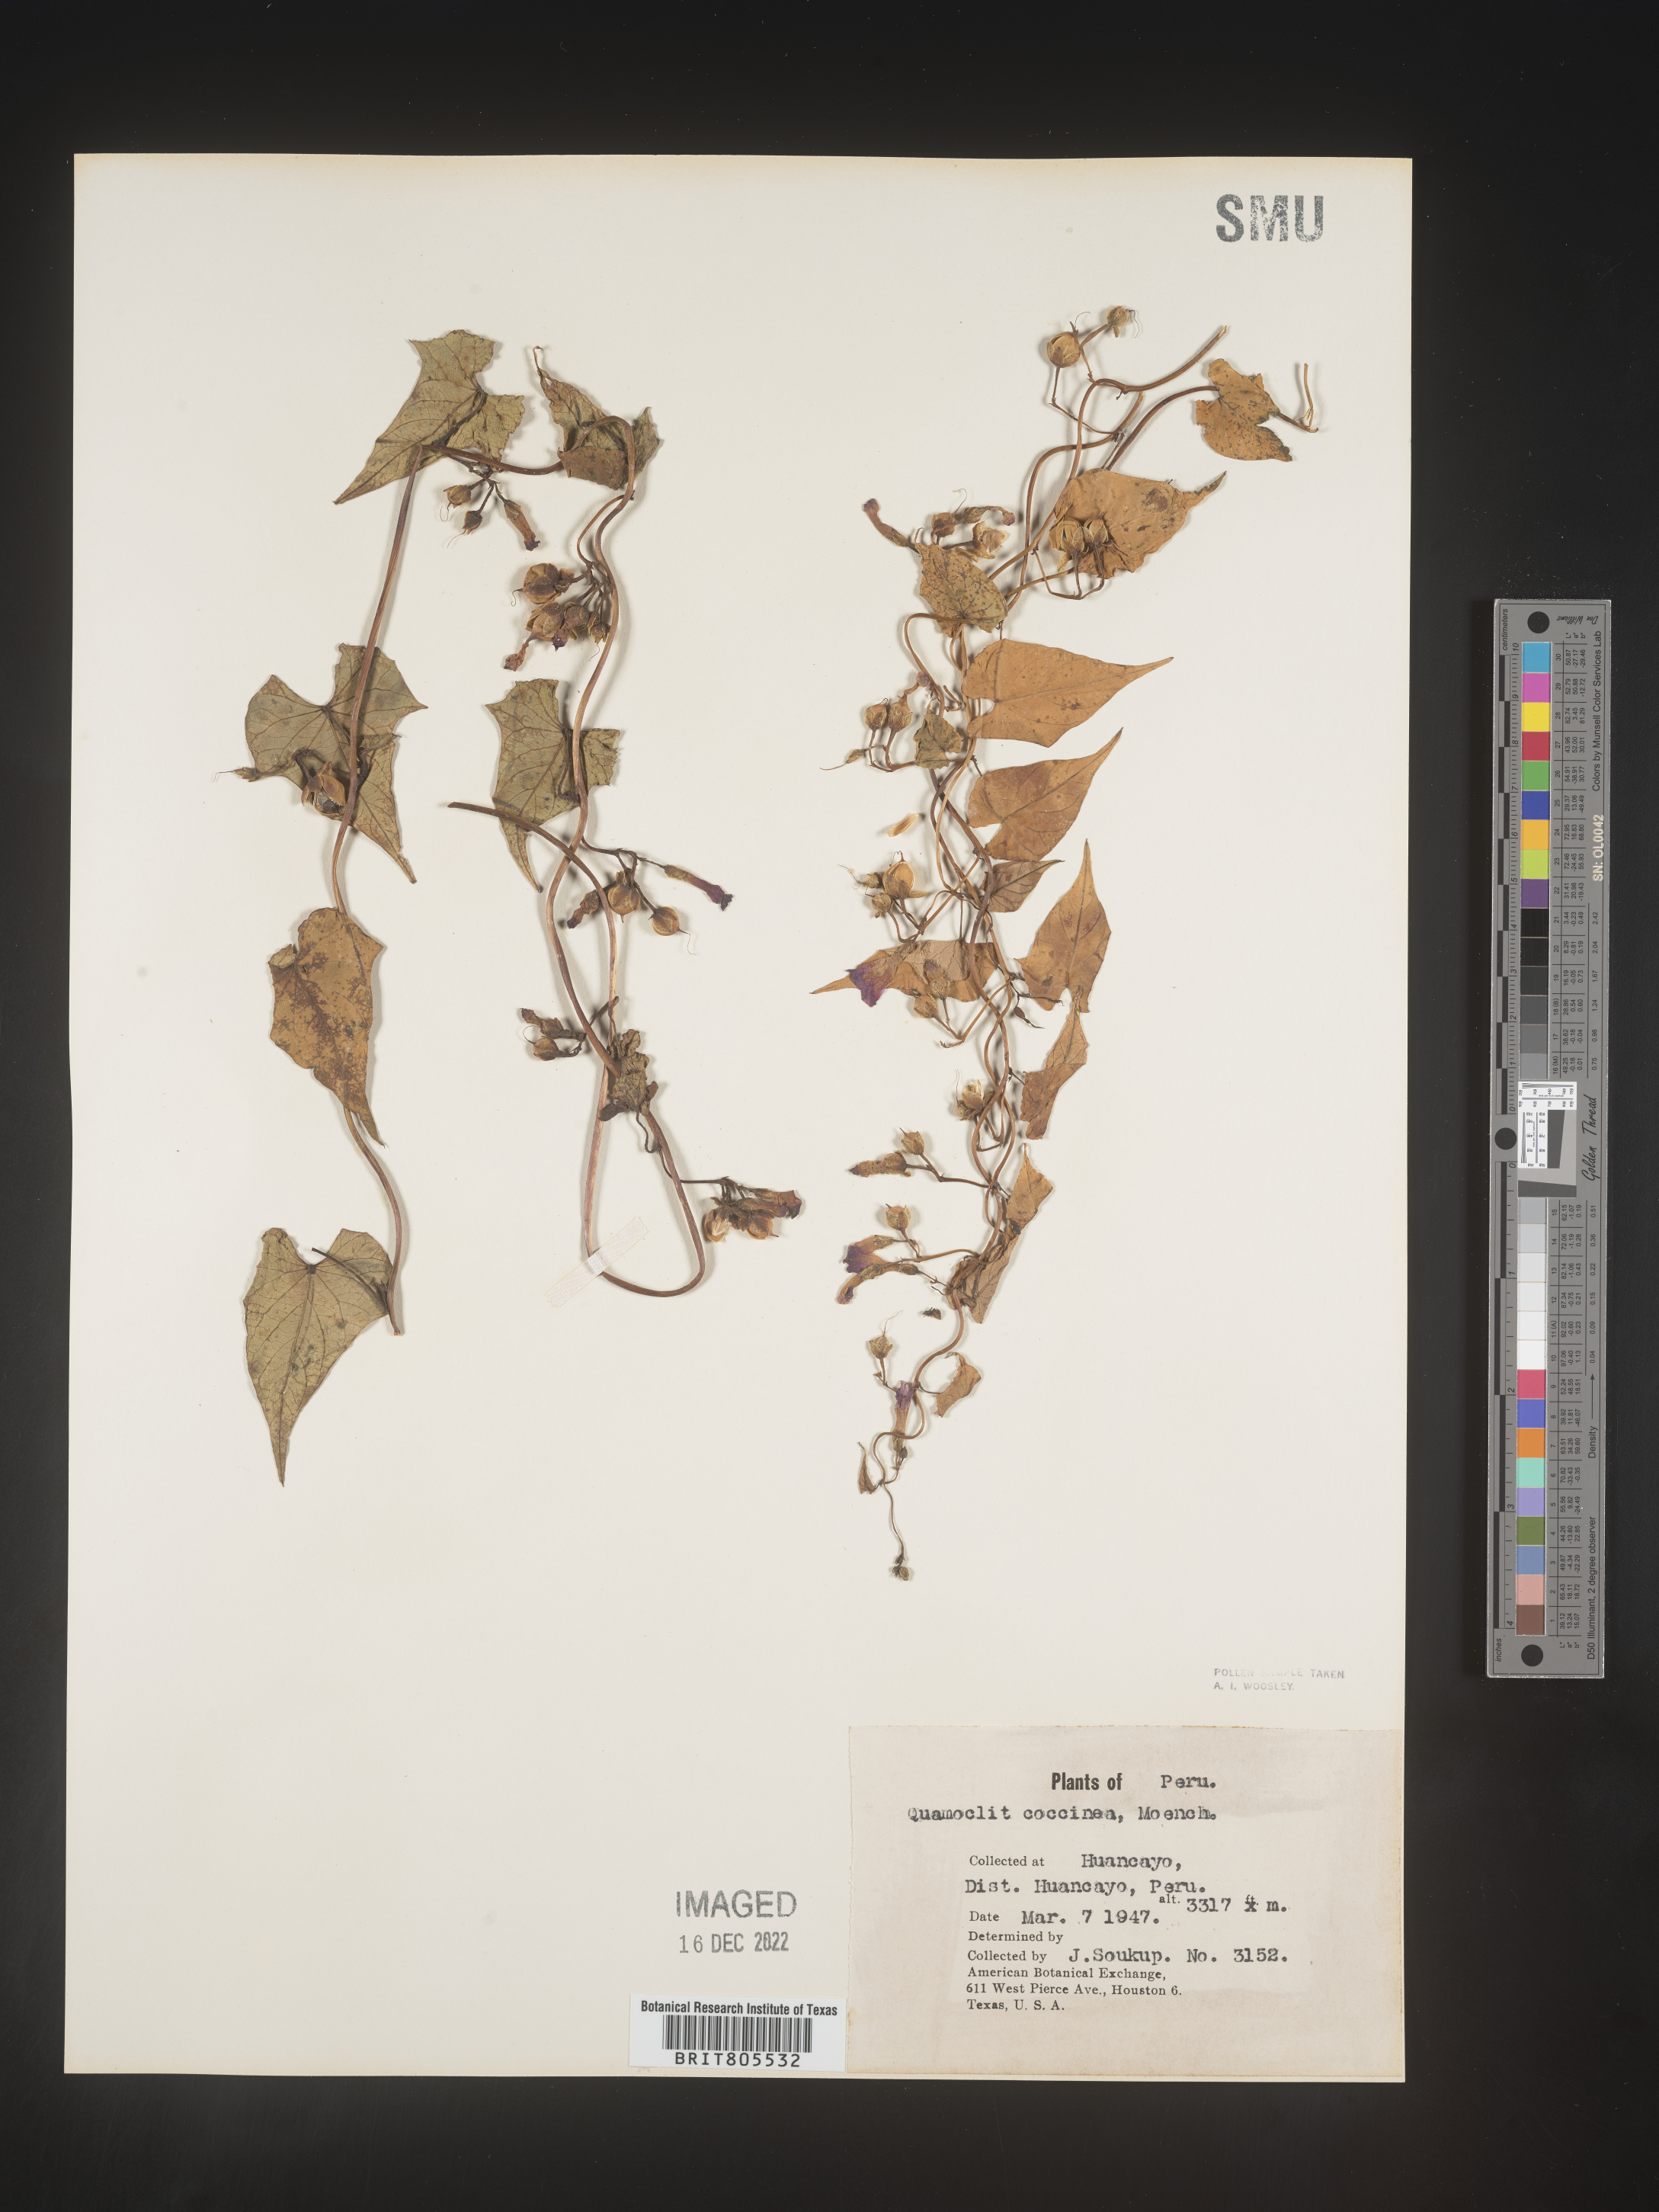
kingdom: Plantae
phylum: Tracheophyta
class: Magnoliopsida
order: Solanales
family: Convolvulaceae
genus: Ipomoea
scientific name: Ipomoea
